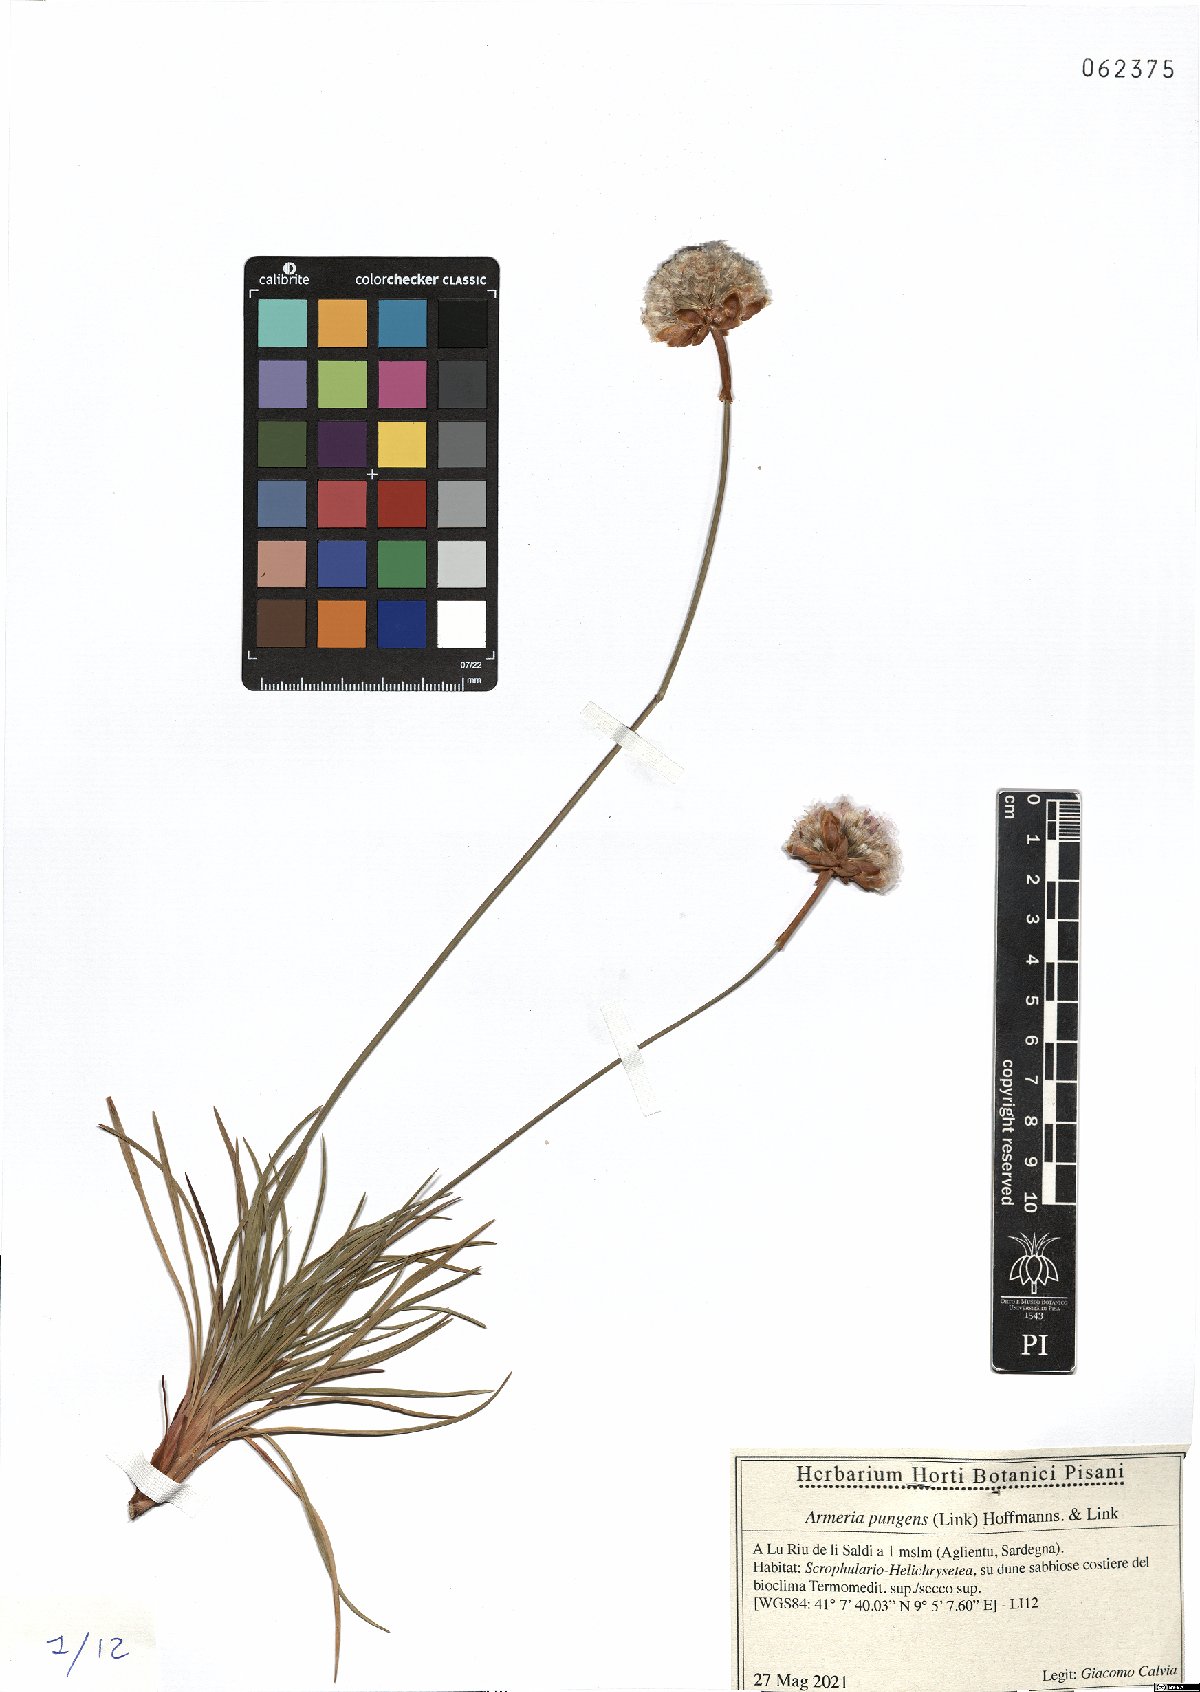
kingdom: Plantae
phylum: Tracheophyta
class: Magnoliopsida
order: Caryophyllales
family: Plumbaginaceae
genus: Armeria
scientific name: Armeria pungens
